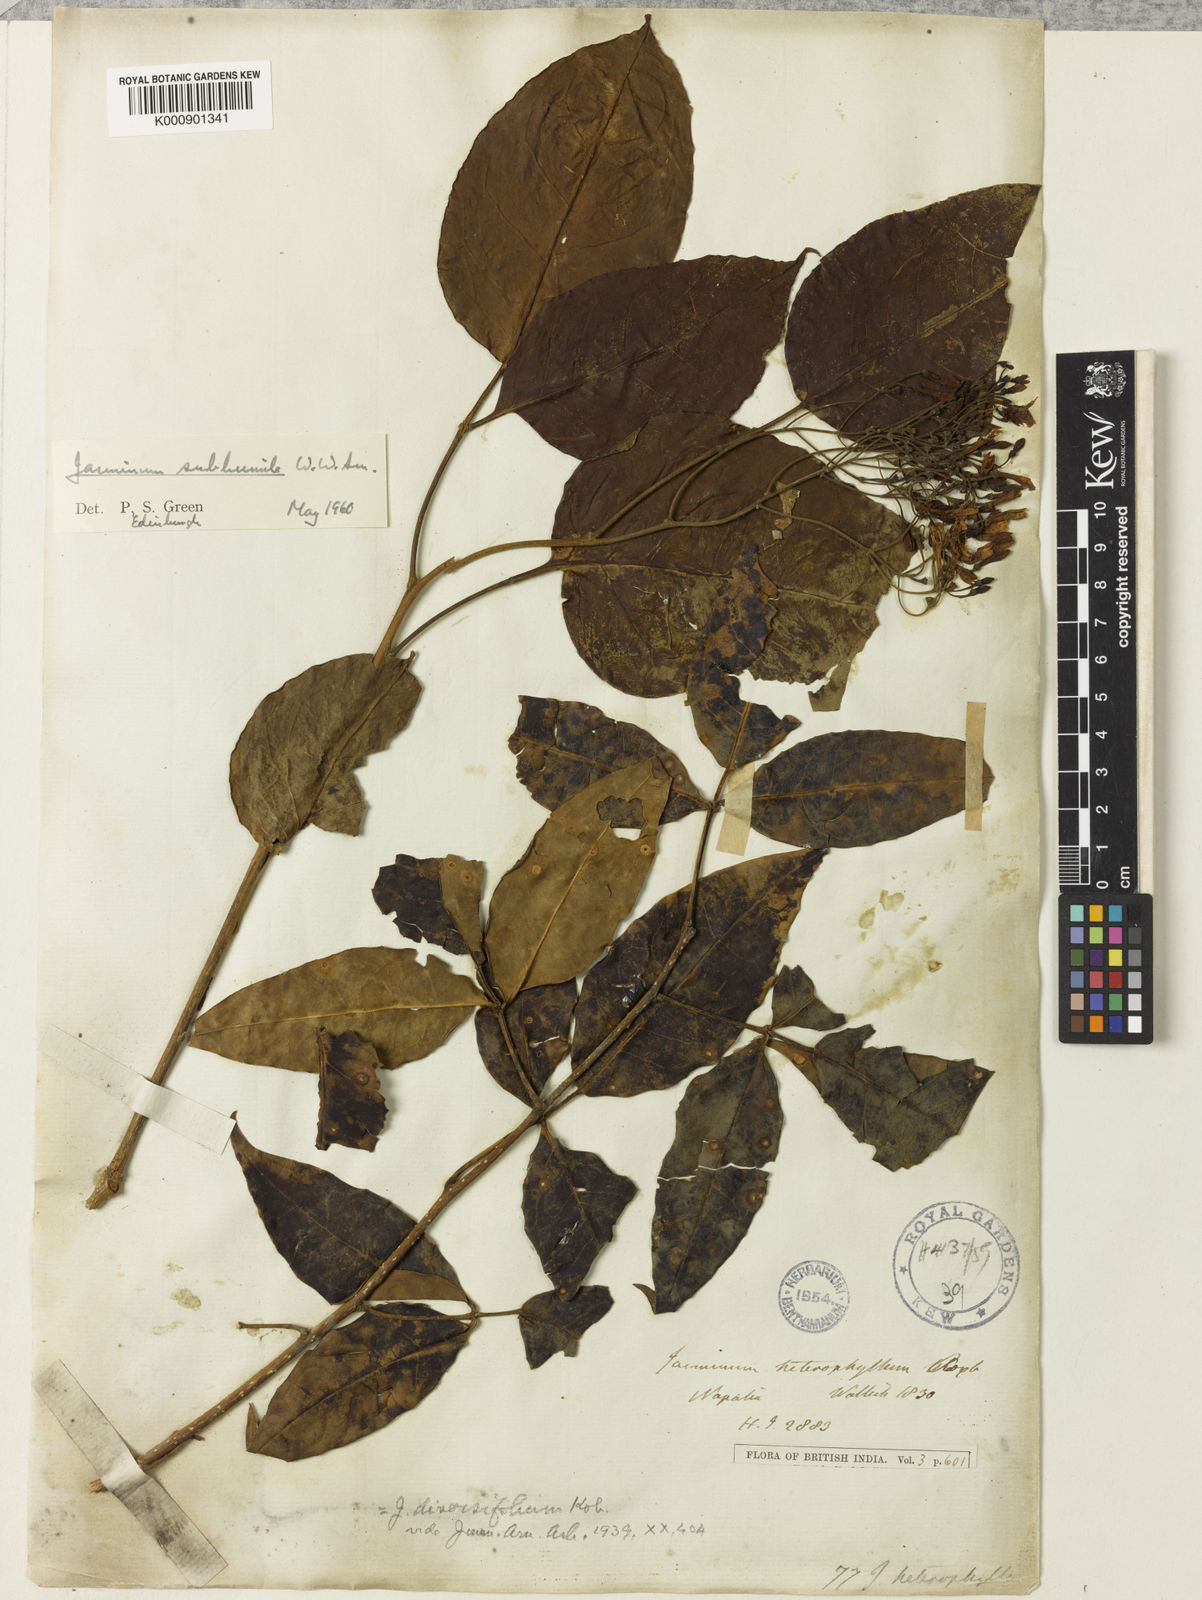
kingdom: Plantae
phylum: Tracheophyta
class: Magnoliopsida
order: Lamiales
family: Oleaceae
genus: Chrysojasminum
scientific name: Chrysojasminum subhumile
